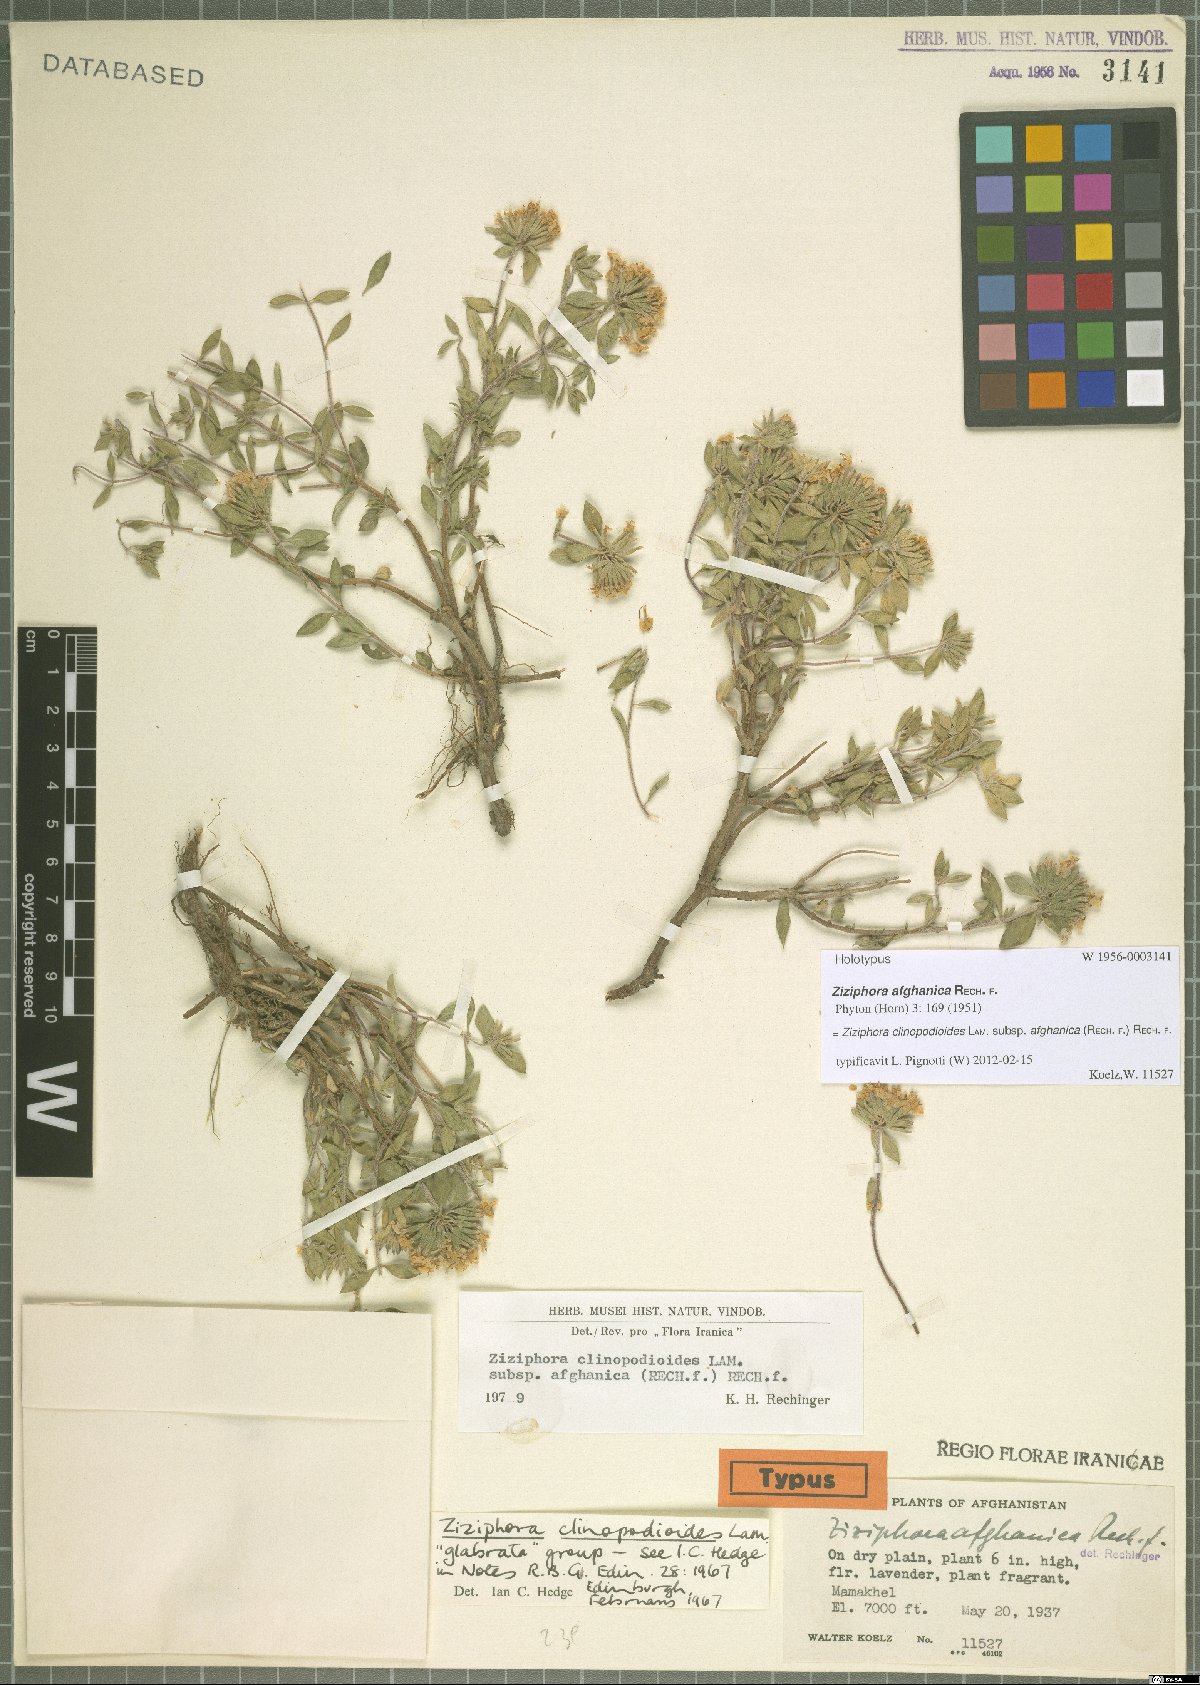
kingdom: Plantae
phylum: Tracheophyta
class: Magnoliopsida
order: Lamiales
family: Lamiaceae
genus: Ziziphora
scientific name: Ziziphora clinopodioides
